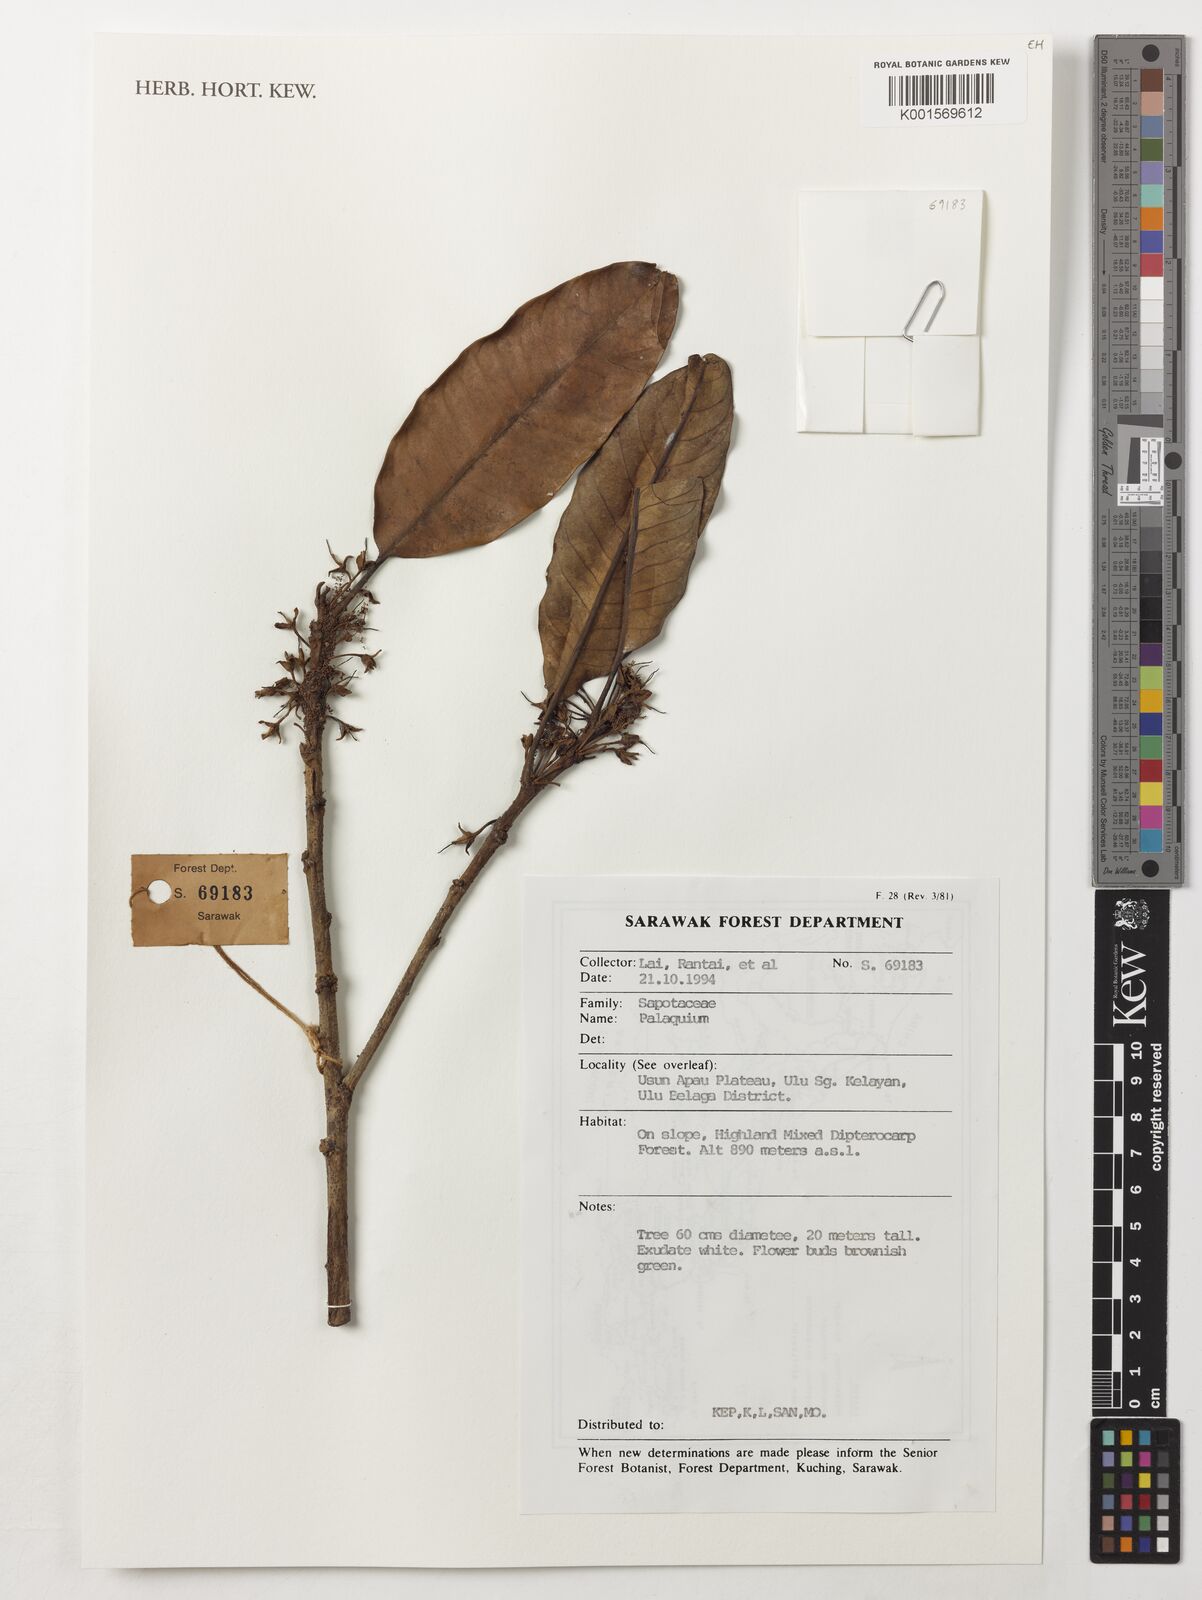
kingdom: Plantae
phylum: Tracheophyta
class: Magnoliopsida
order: Ericales
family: Sapotaceae
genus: Palaquium
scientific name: Palaquium
